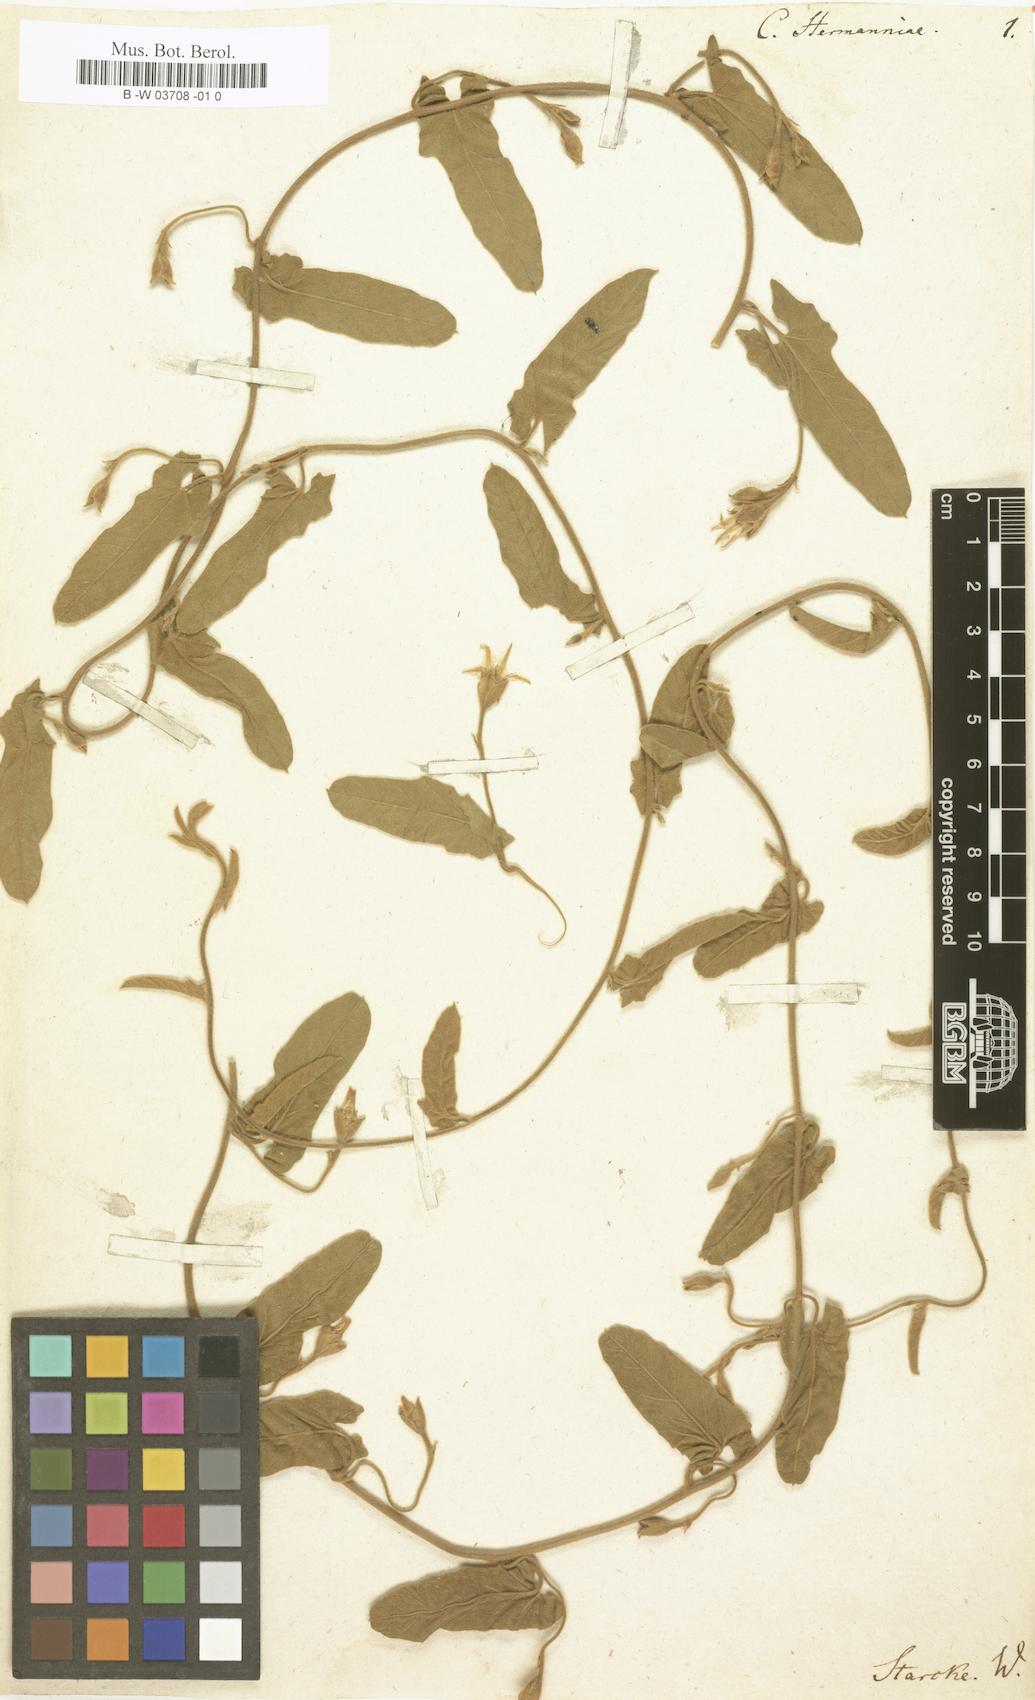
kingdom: Plantae
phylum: Tracheophyta
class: Magnoliopsida
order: Solanales
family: Convolvulaceae
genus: Convolvulus
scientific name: Convolvulus hermanniae
